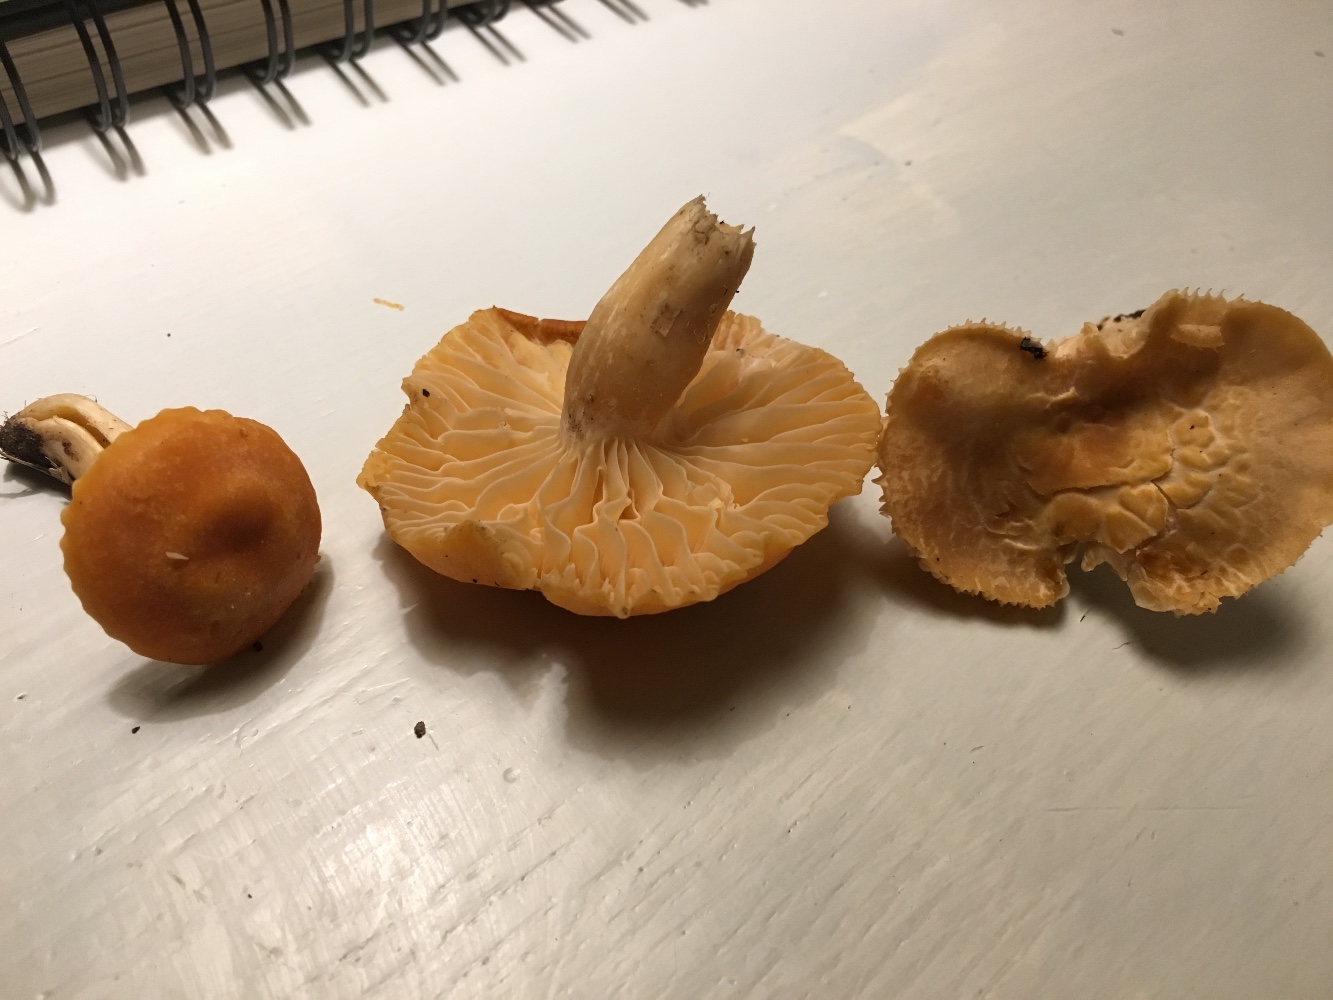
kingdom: Fungi
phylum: Basidiomycota
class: Agaricomycetes
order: Agaricales
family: Hygrophoraceae
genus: Cuphophyllus
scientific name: Cuphophyllus pratensis
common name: eng-vokshat
